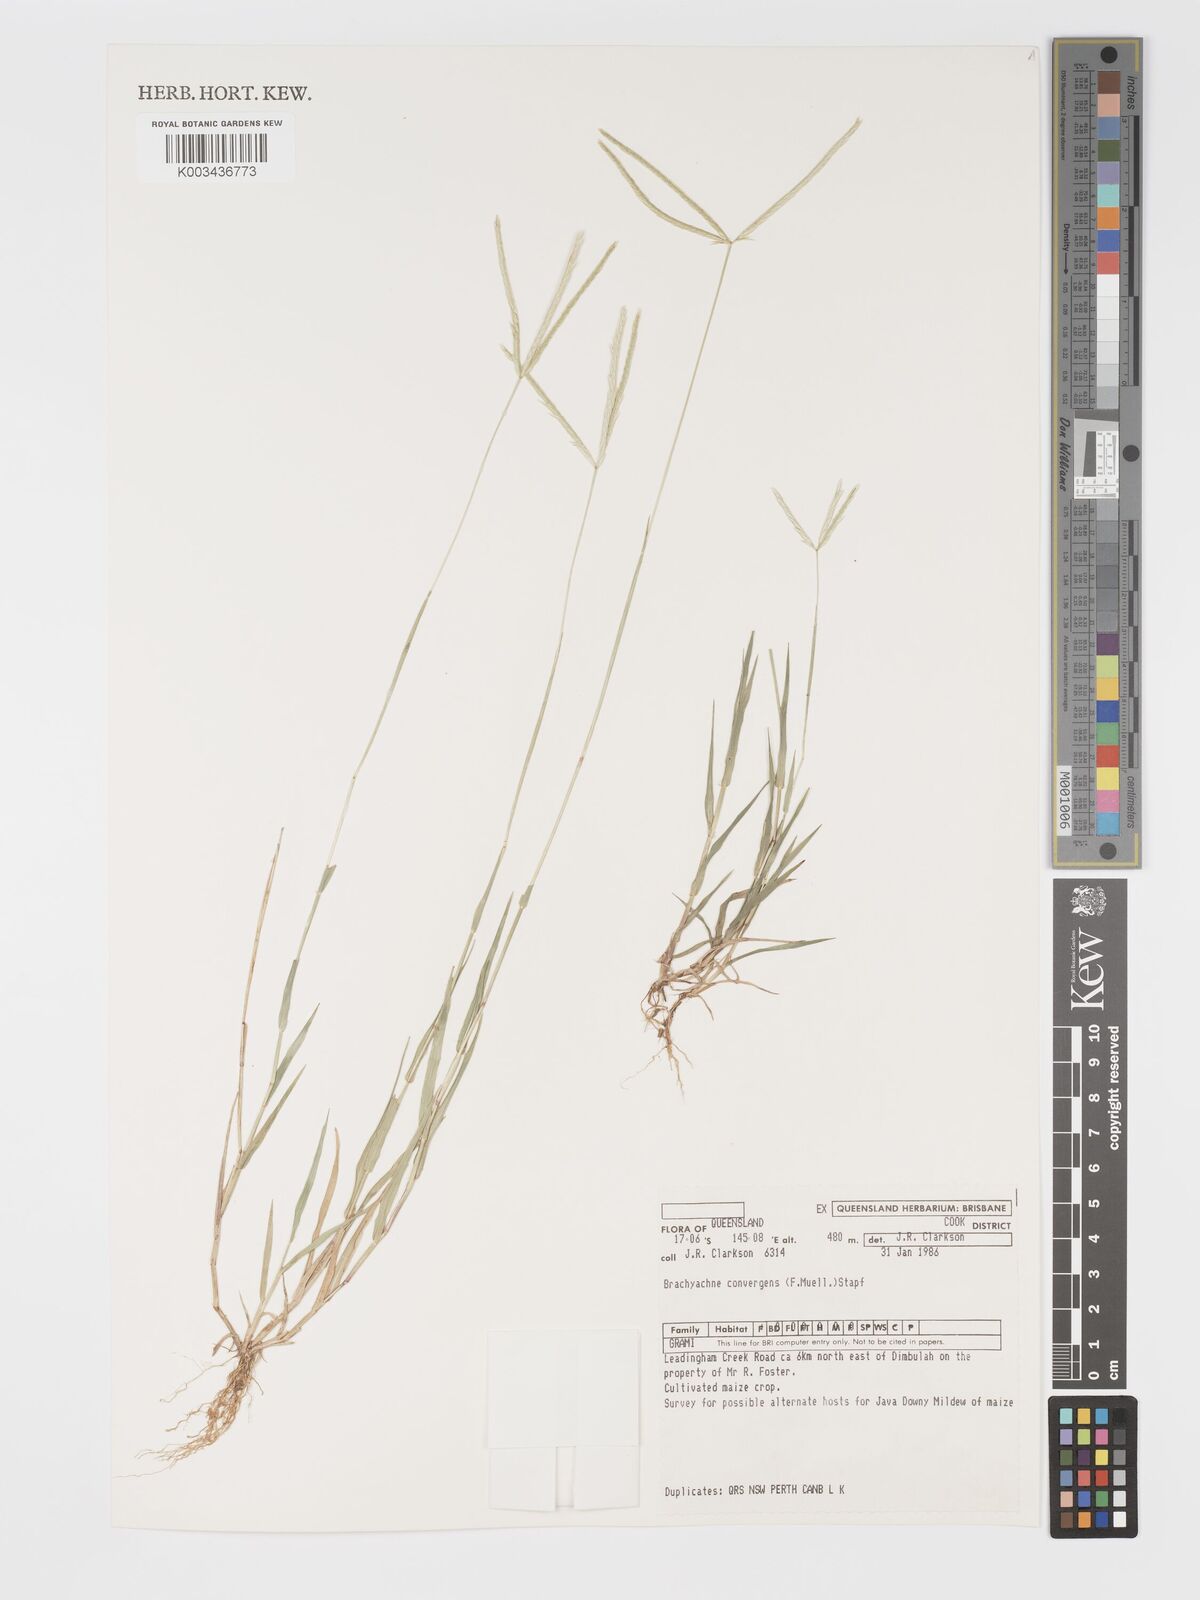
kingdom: Plantae
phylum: Tracheophyta
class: Liliopsida
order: Poales
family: Poaceae
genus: Cynodon
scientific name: Cynodon convergens
